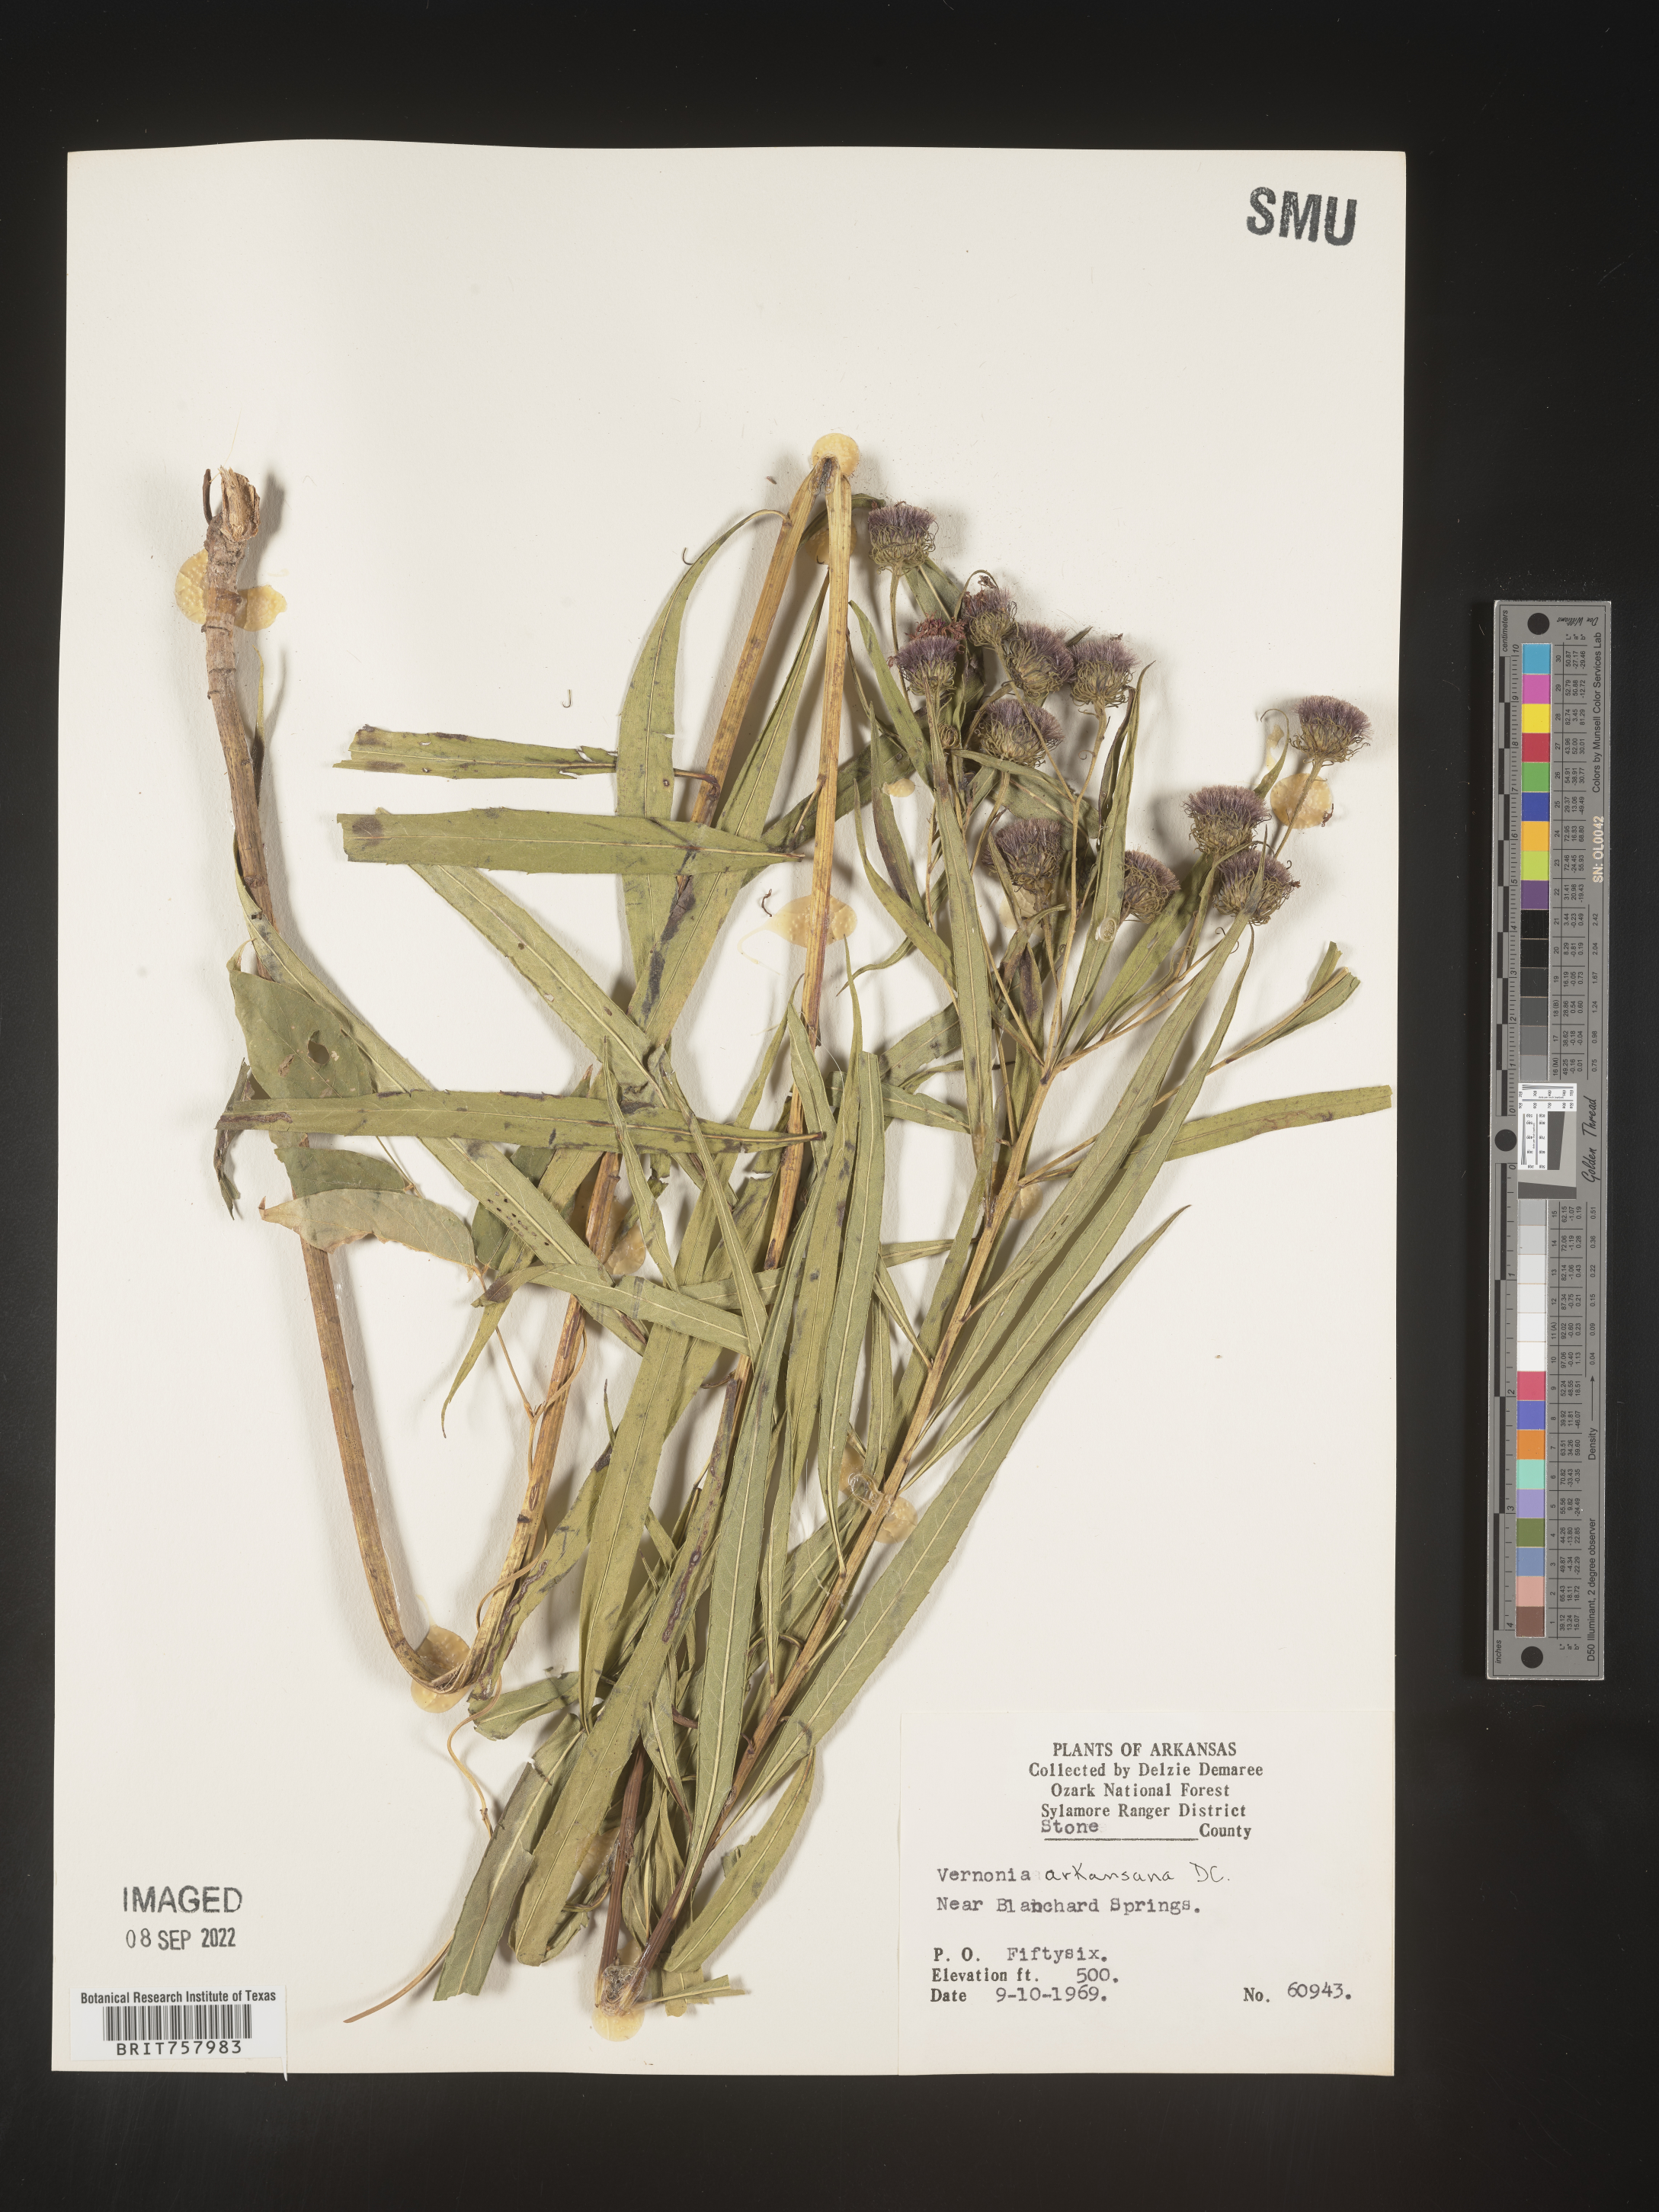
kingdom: Plantae
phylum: Tracheophyta
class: Magnoliopsida
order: Asterales
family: Asteraceae
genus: Vernonia
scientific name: Vernonia arkansana
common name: Ozark ironweed
